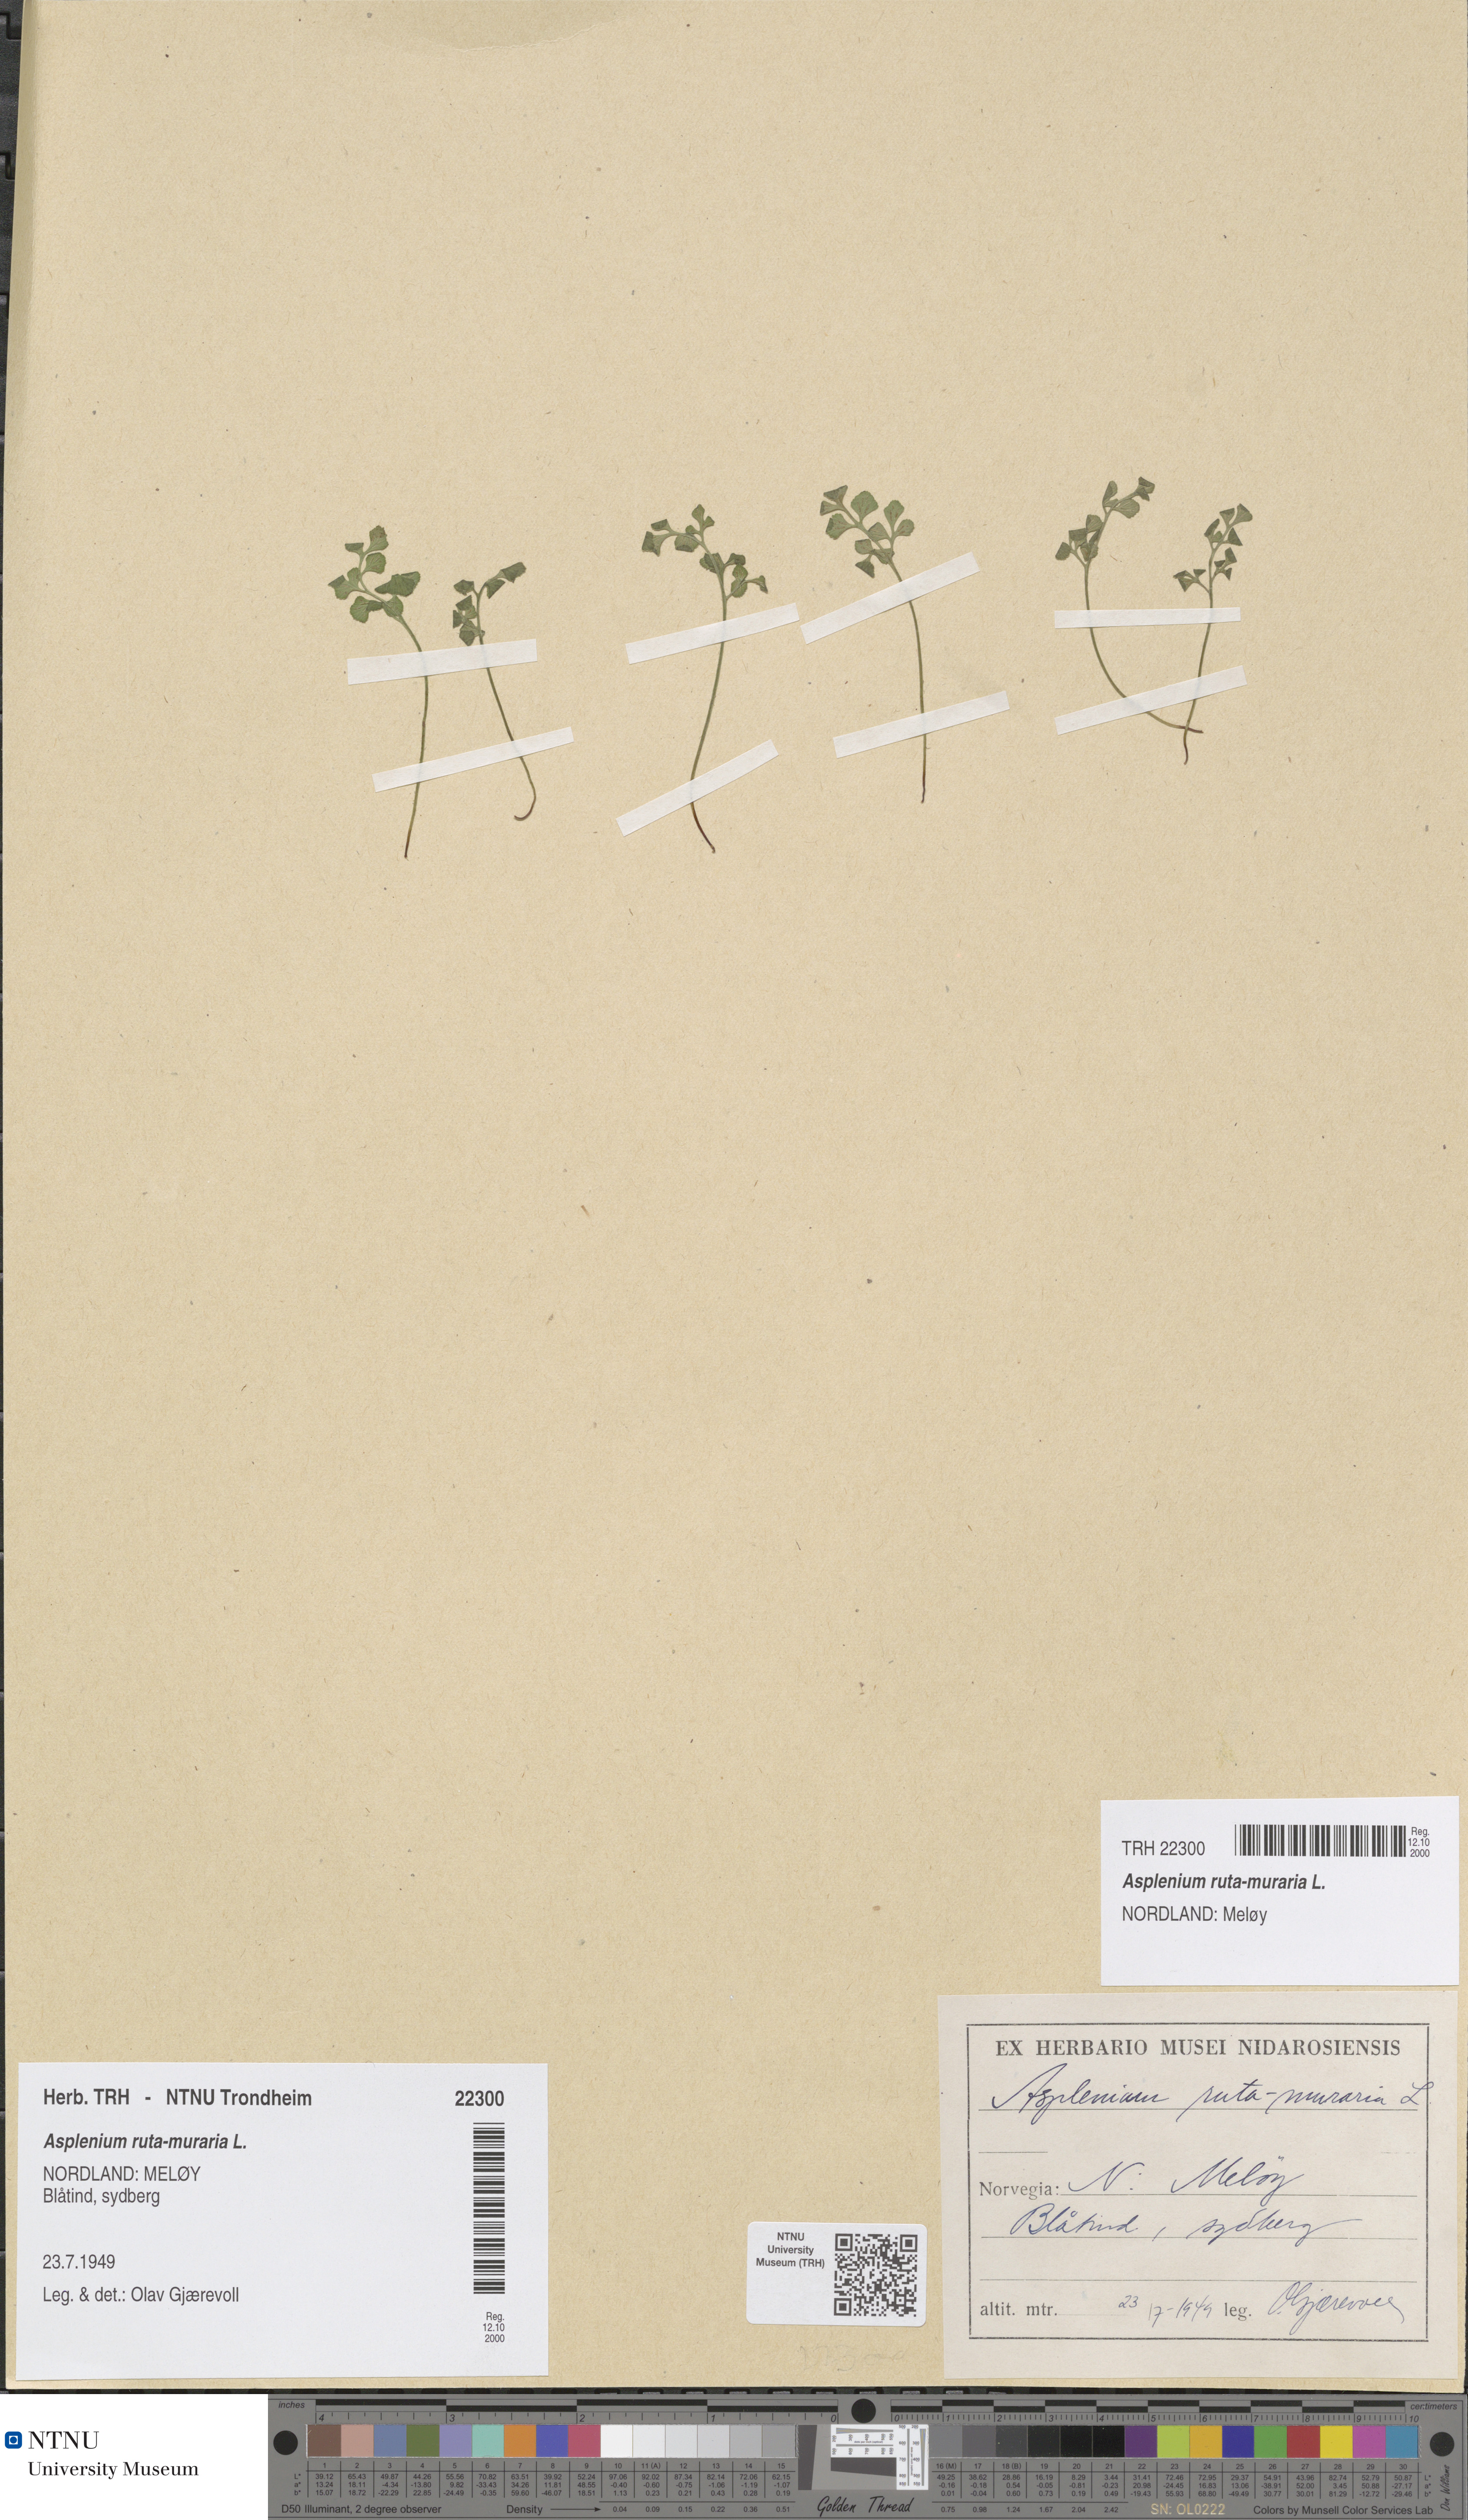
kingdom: Plantae
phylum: Tracheophyta
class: Polypodiopsida
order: Polypodiales
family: Aspleniaceae
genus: Asplenium
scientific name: Asplenium ruta-muraria
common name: Wall-rue
